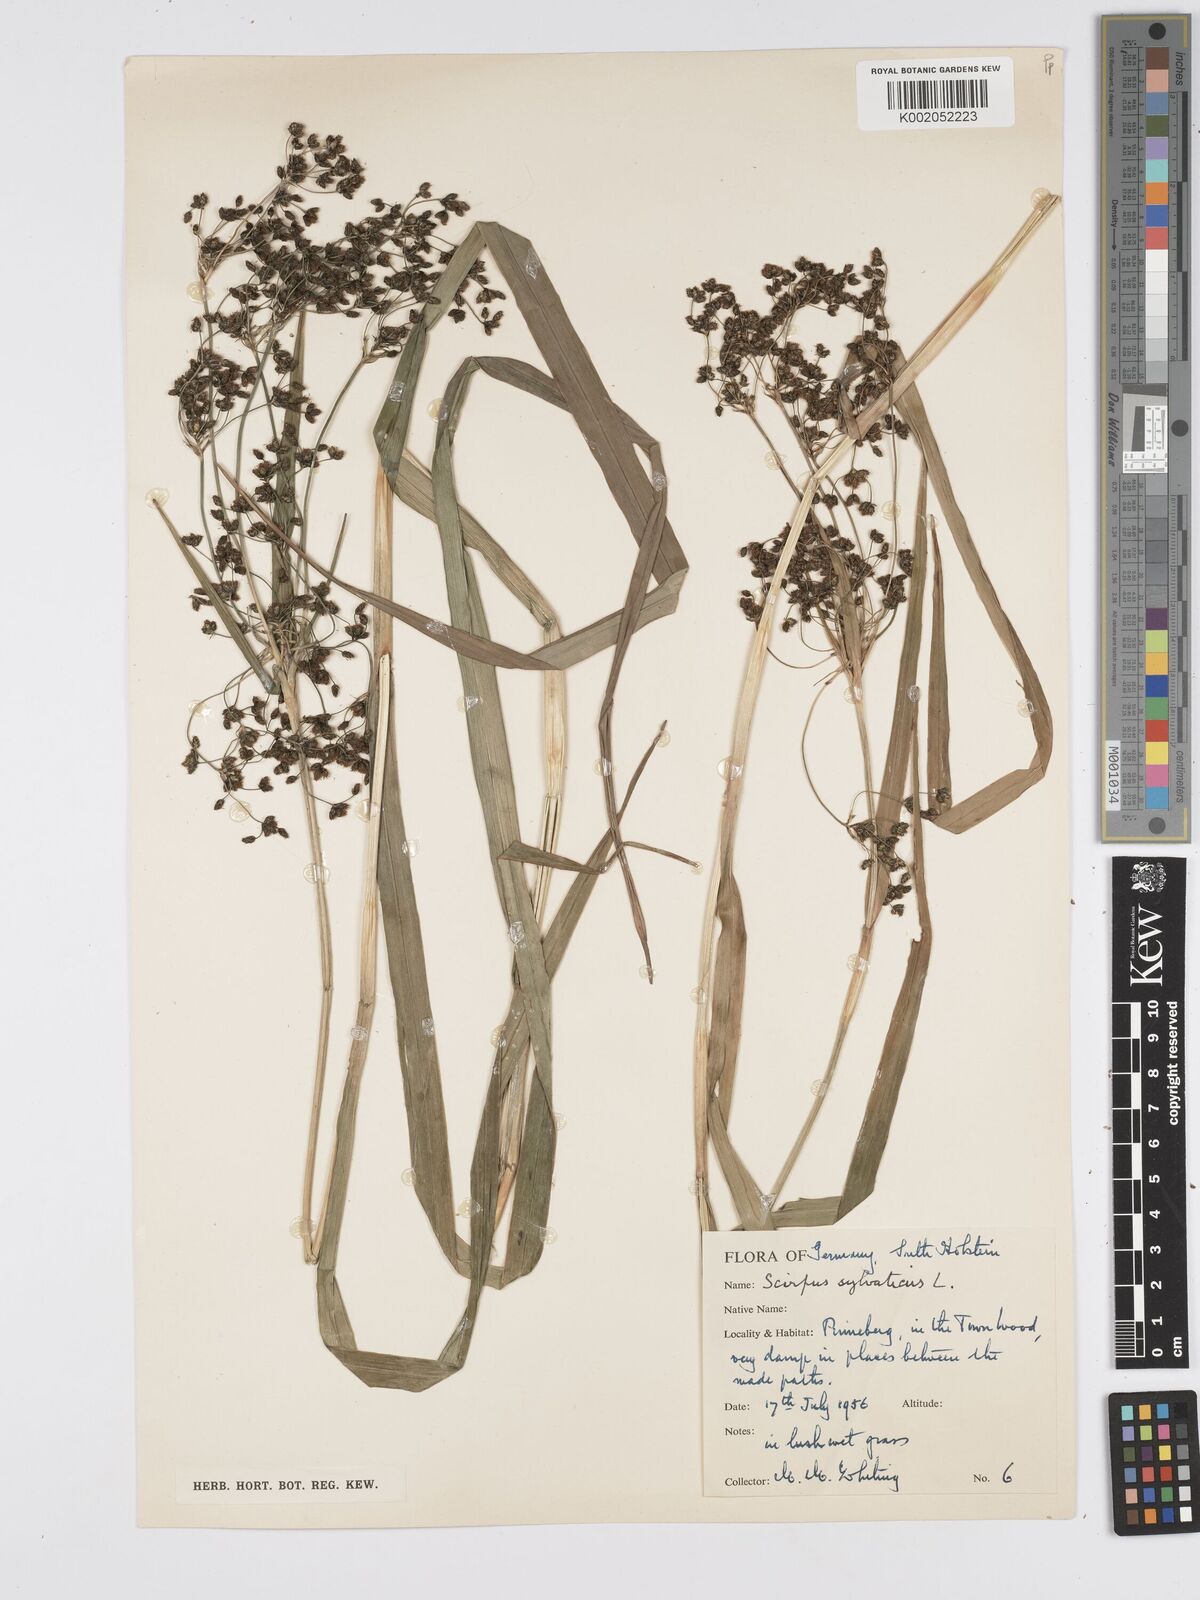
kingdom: Plantae
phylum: Tracheophyta
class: Liliopsida
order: Poales
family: Cyperaceae
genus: Scirpus
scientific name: Scirpus sylvaticus
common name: Wood club-rush
